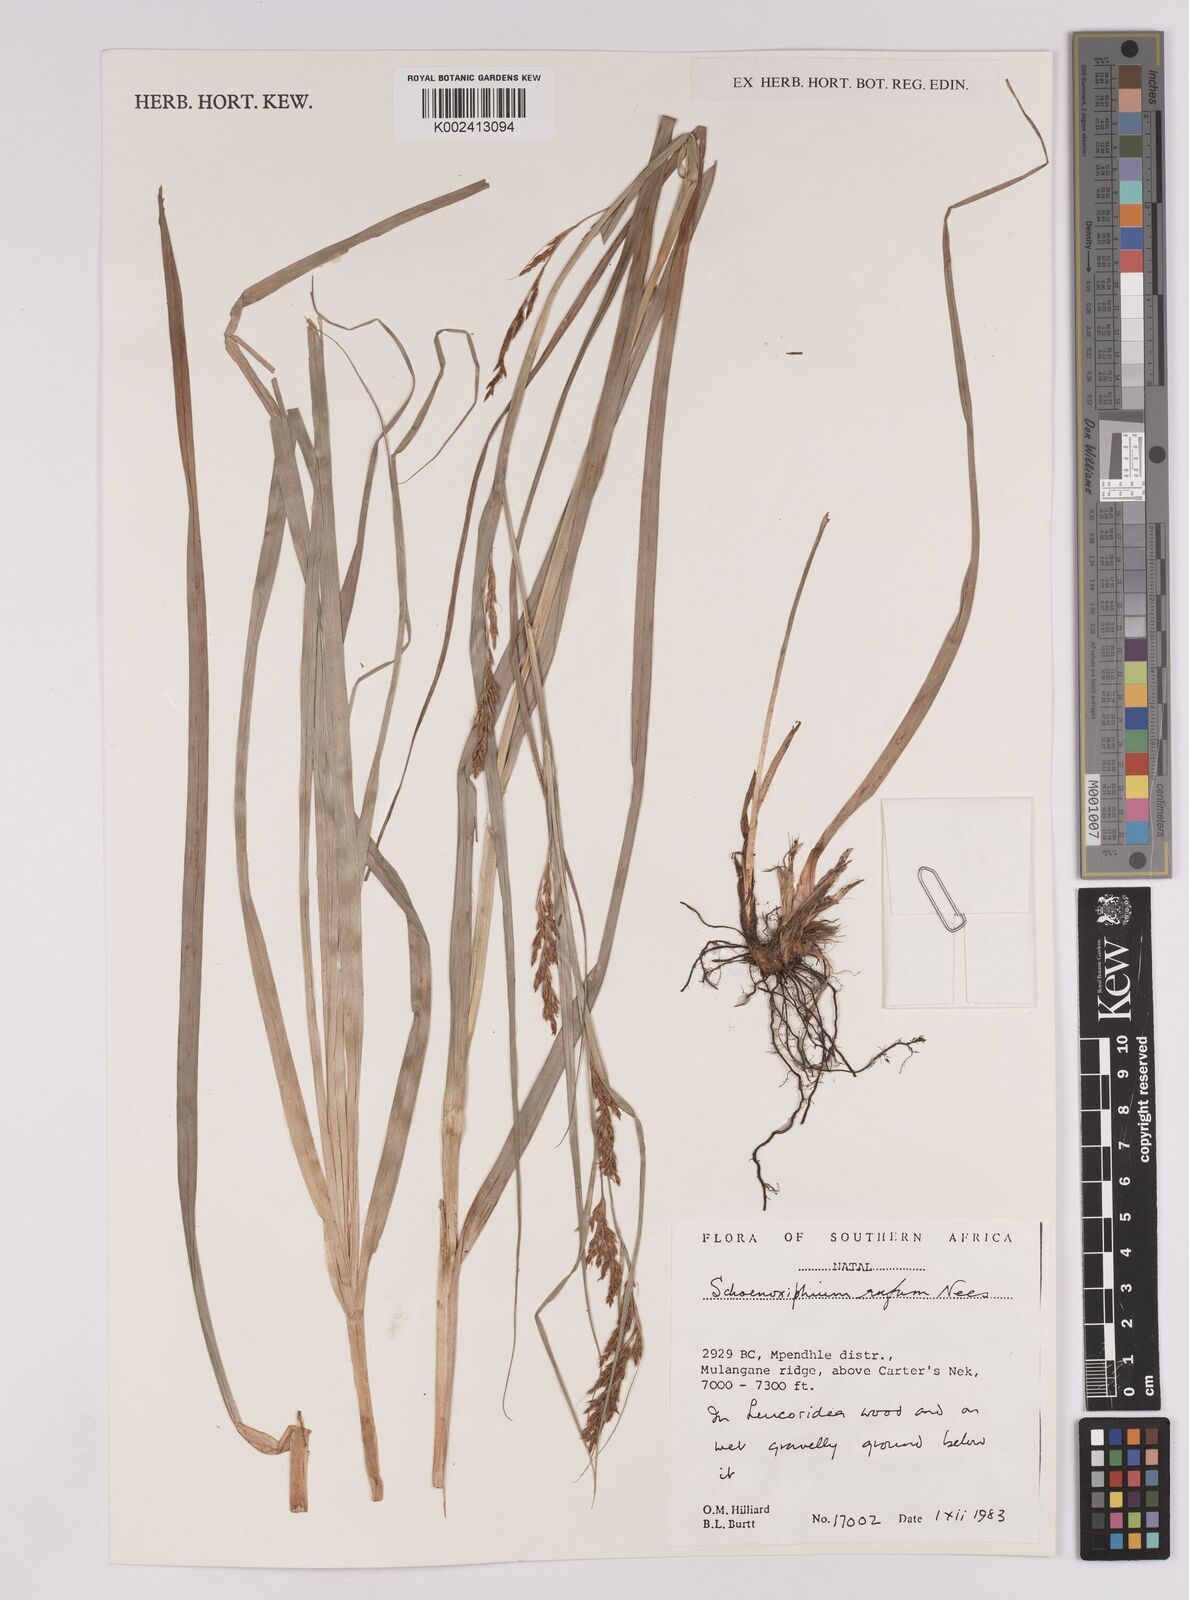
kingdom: Plantae
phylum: Tracheophyta
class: Liliopsida
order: Poales
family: Cyperaceae
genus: Carex
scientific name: Carex ludwigii
